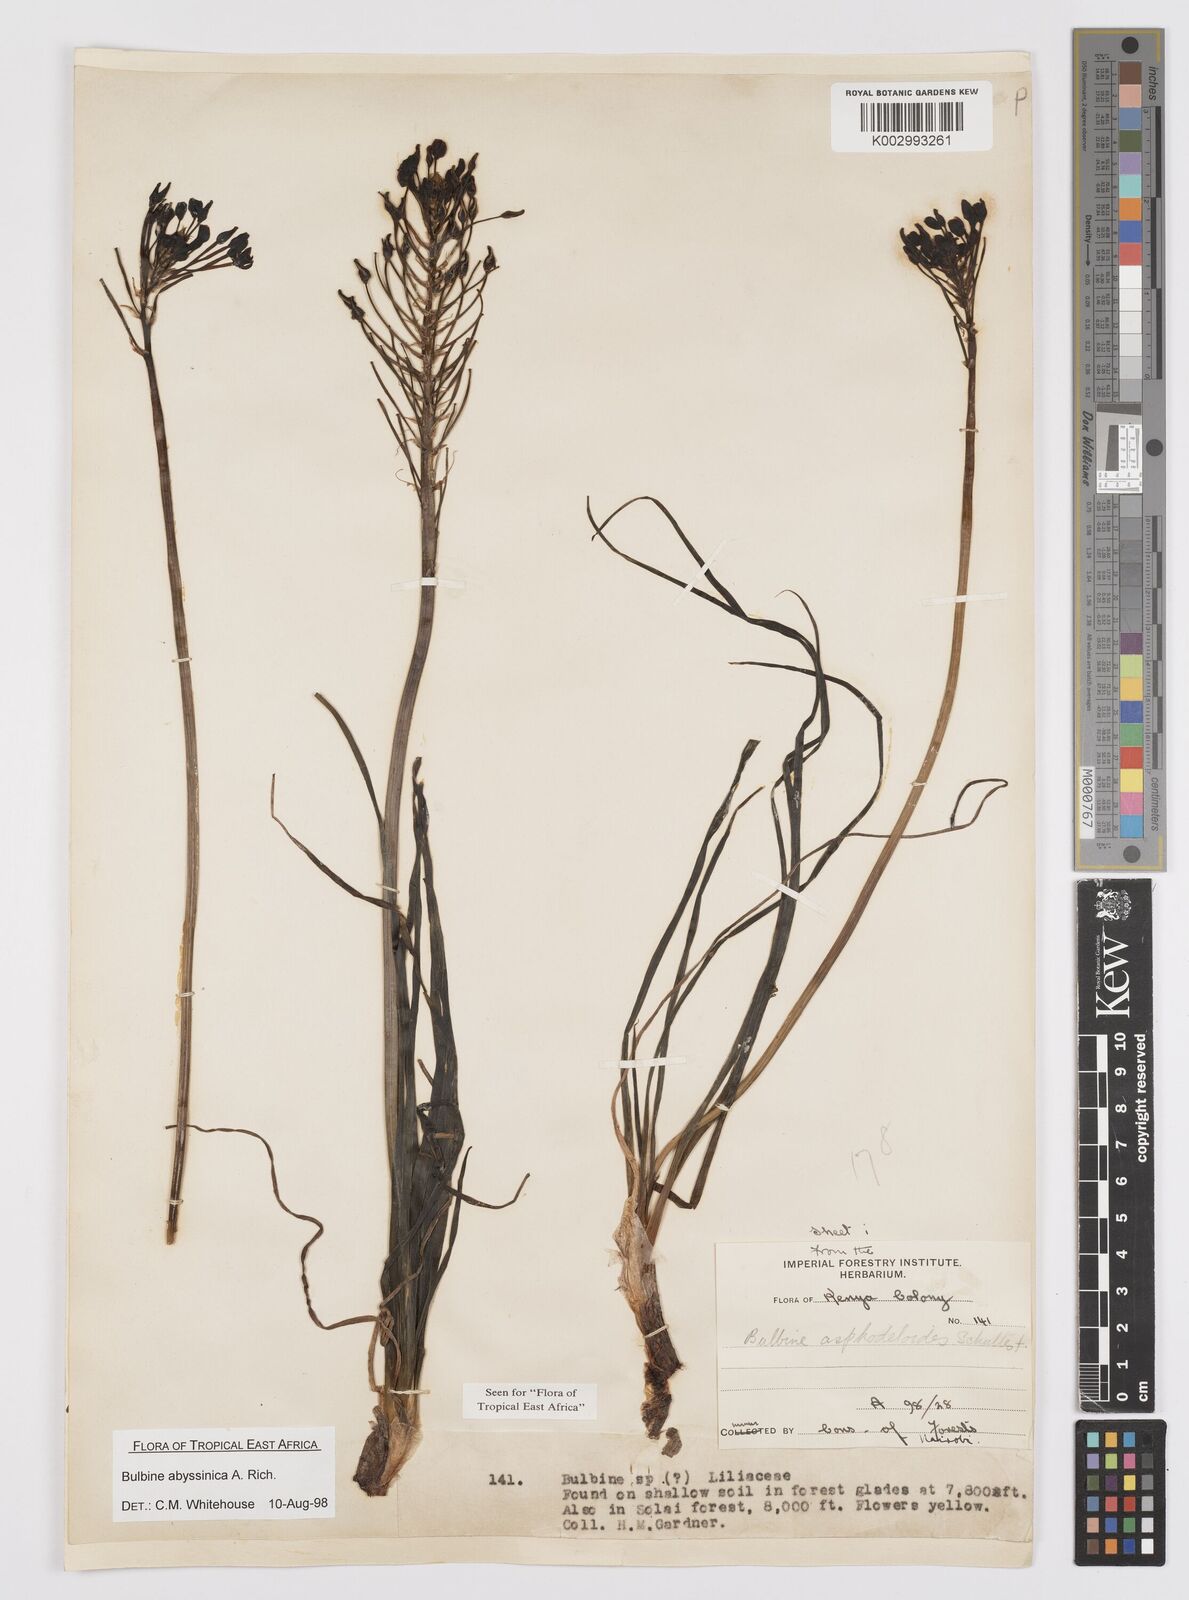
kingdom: Plantae
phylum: Tracheophyta
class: Liliopsida
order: Asparagales
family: Asphodelaceae
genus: Bulbine
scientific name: Bulbine abyssinica
